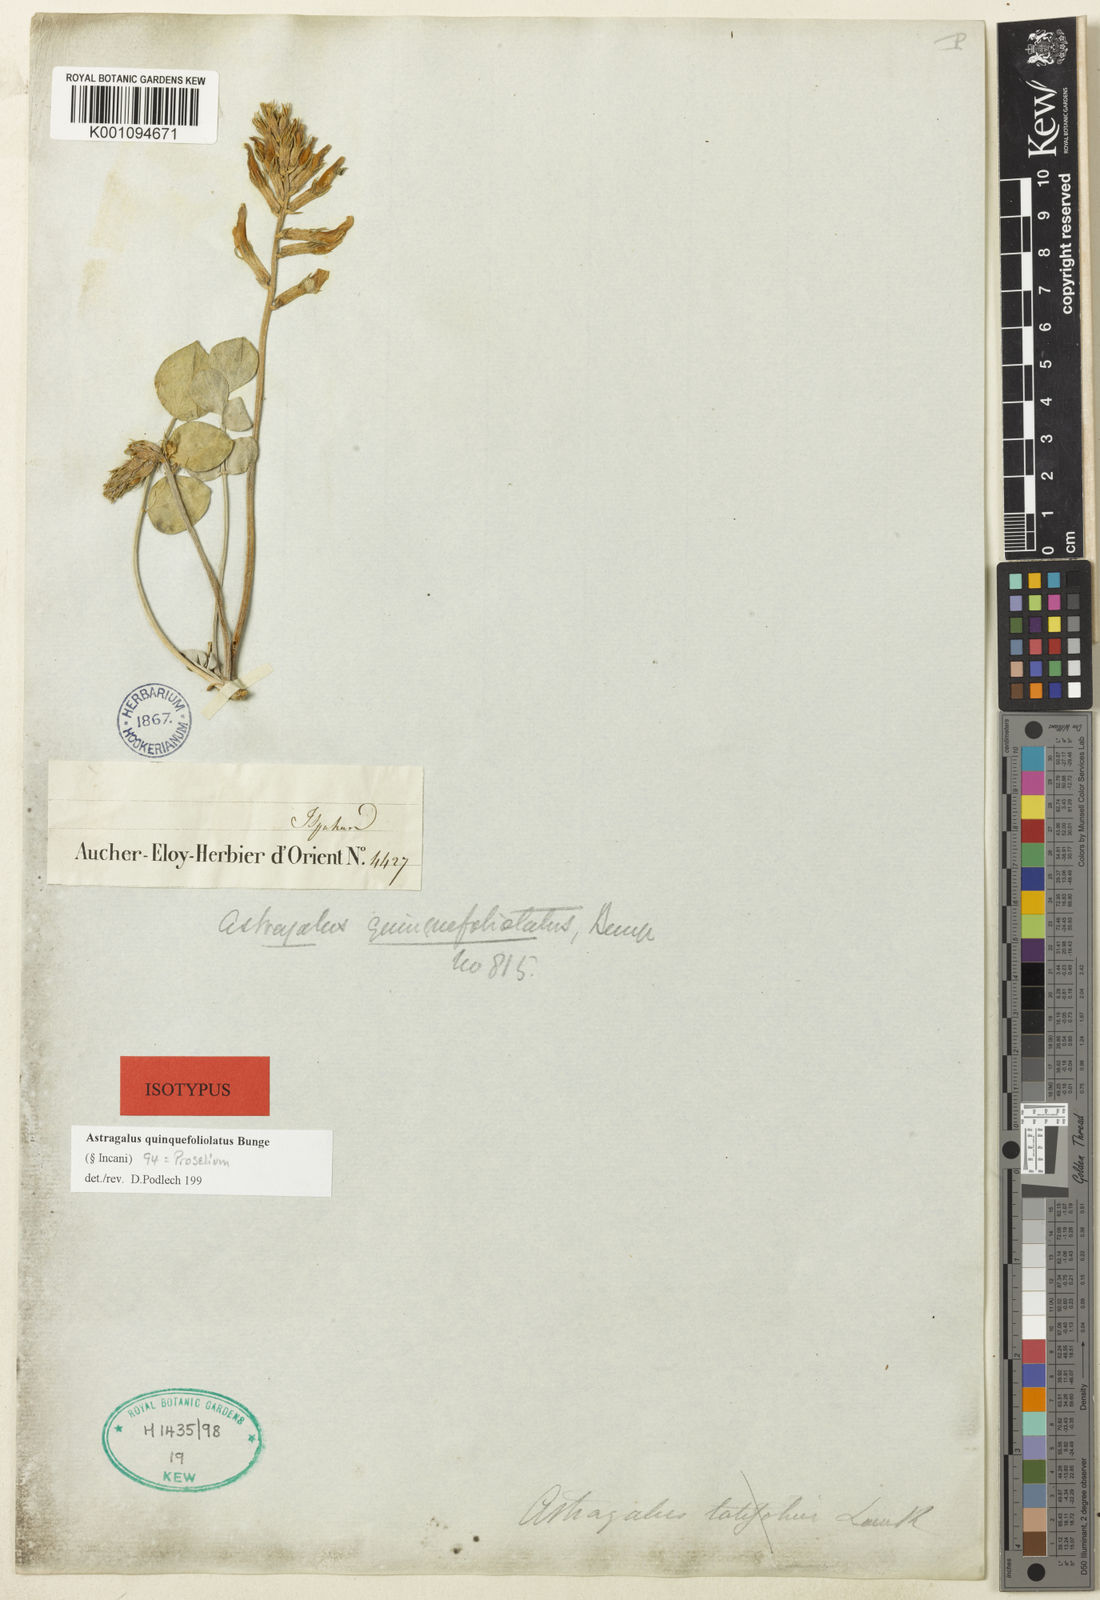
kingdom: Plantae
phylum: Tracheophyta
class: Magnoliopsida
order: Fabales
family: Fabaceae
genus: Astragalus
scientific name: Astragalus
